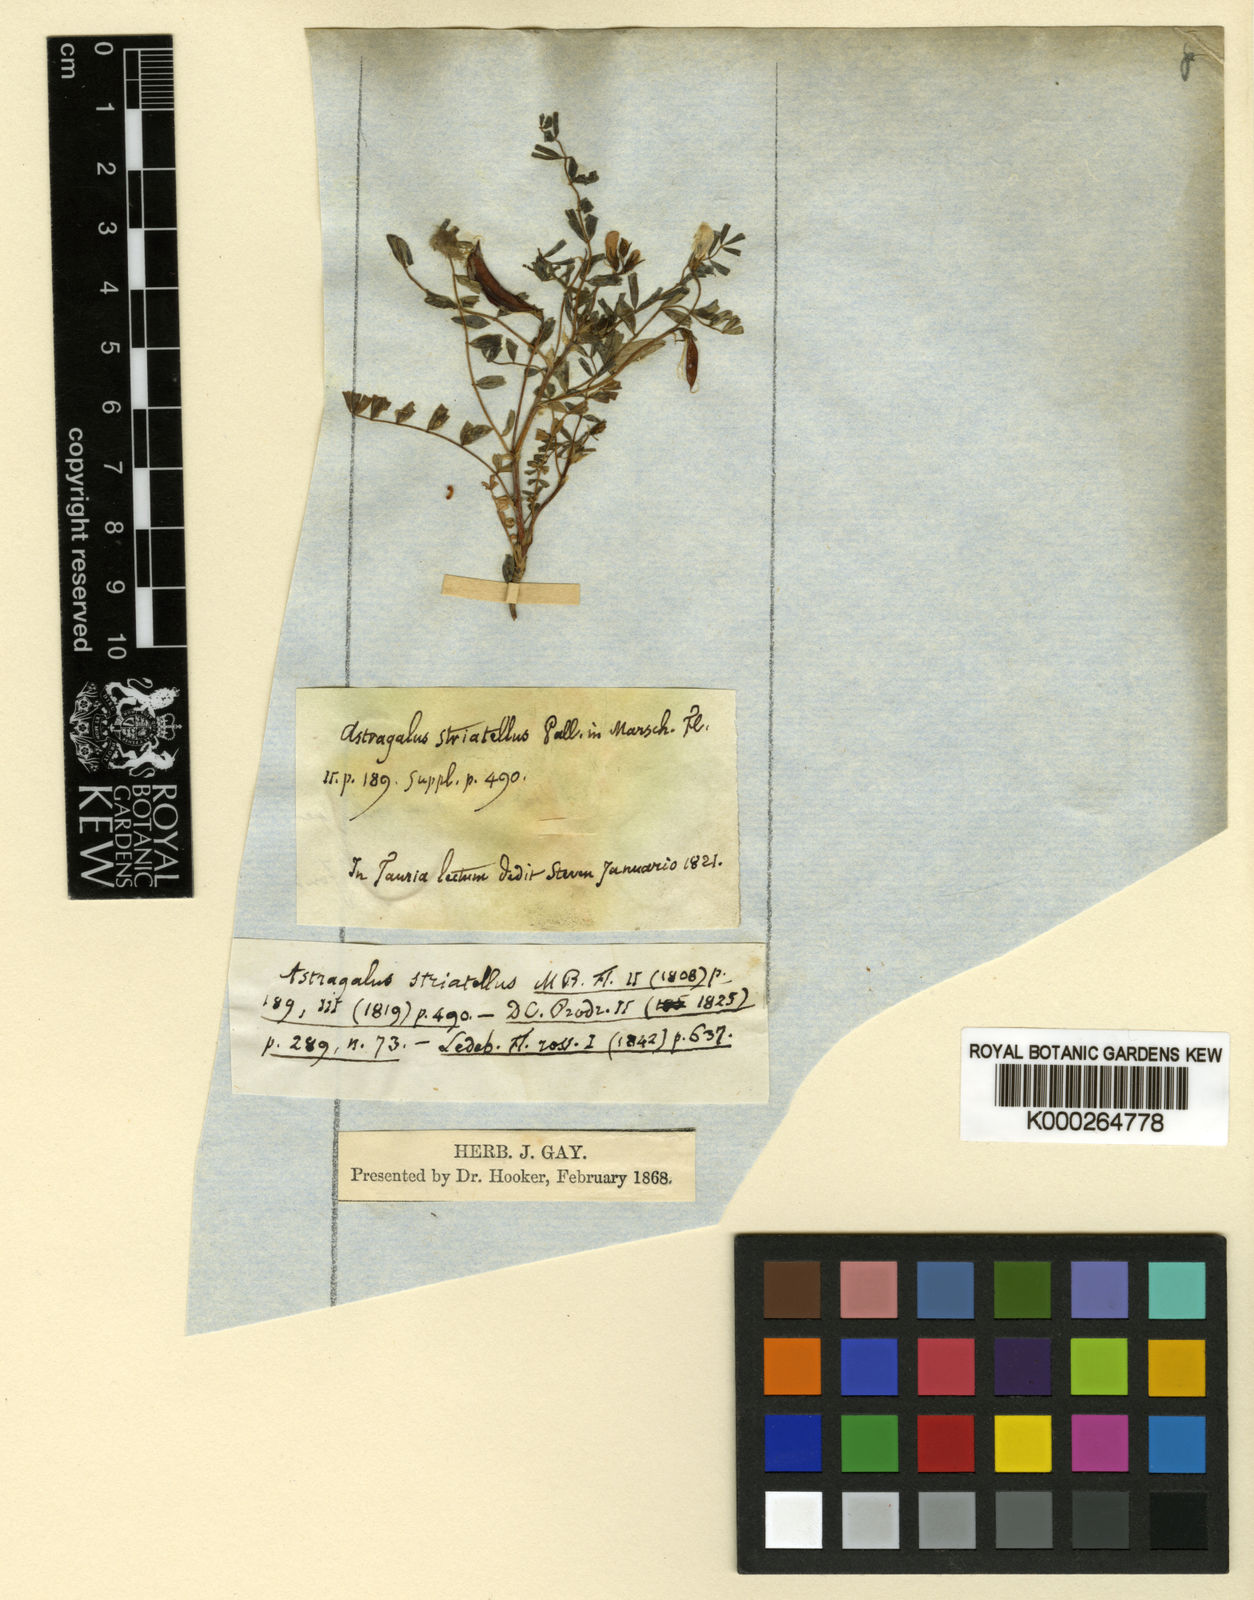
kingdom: Plantae
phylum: Tracheophyta
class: Magnoliopsida
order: Fabales
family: Fabaceae
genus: Astragalus
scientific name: Astragalus guttatus
